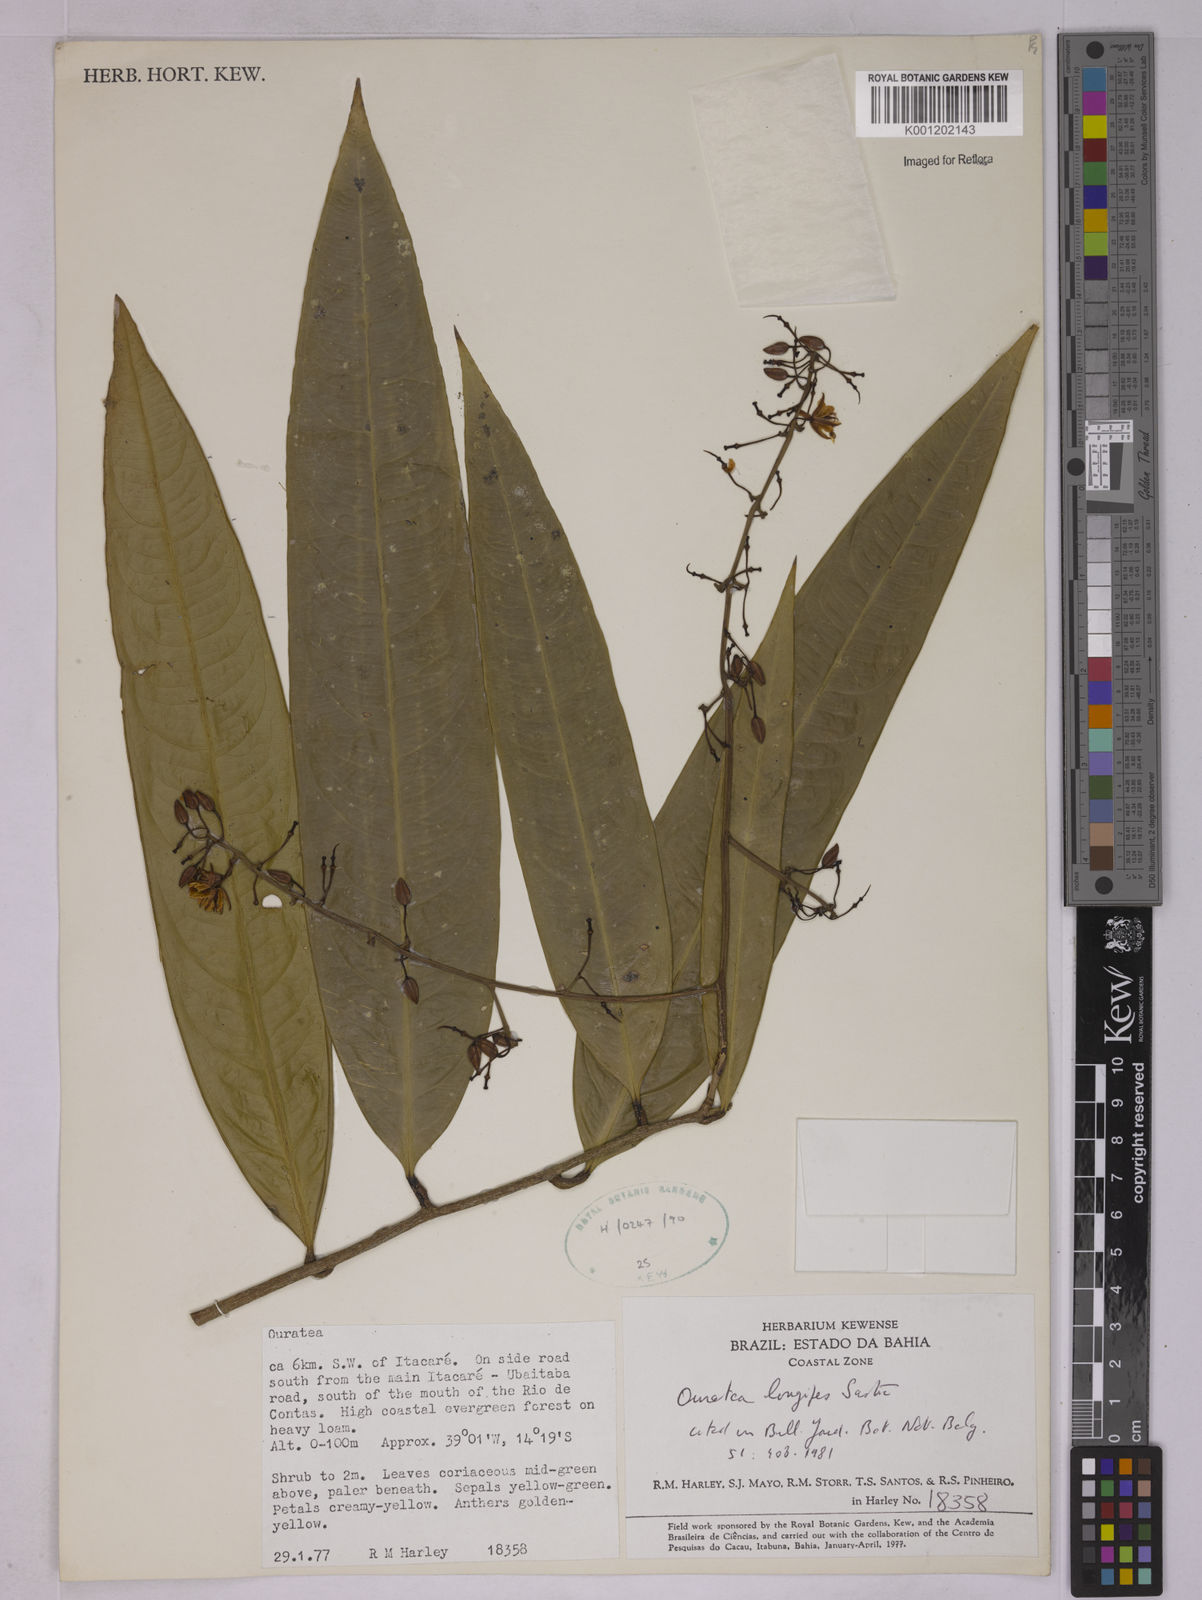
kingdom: Plantae
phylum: Tracheophyta
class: Magnoliopsida
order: Malpighiales
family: Ochnaceae
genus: Ouratea
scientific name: Ouratea longipes
